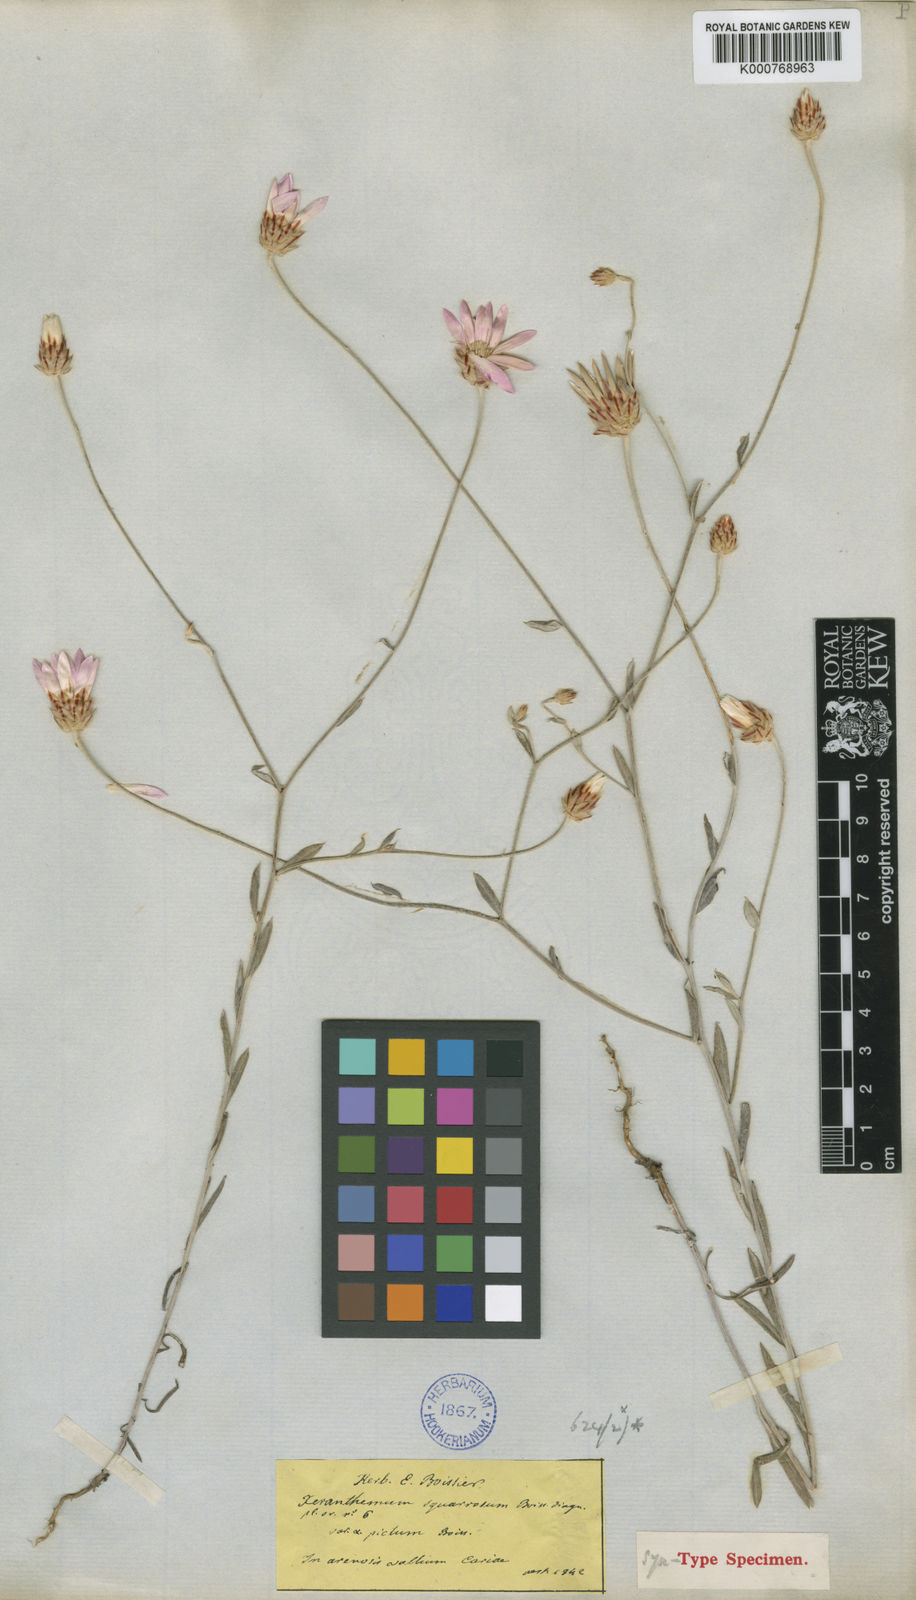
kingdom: Plantae
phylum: Tracheophyta
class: Magnoliopsida
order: Asterales
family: Asteraceae
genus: Xeranthemum
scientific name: Xeranthemum squarrosum
